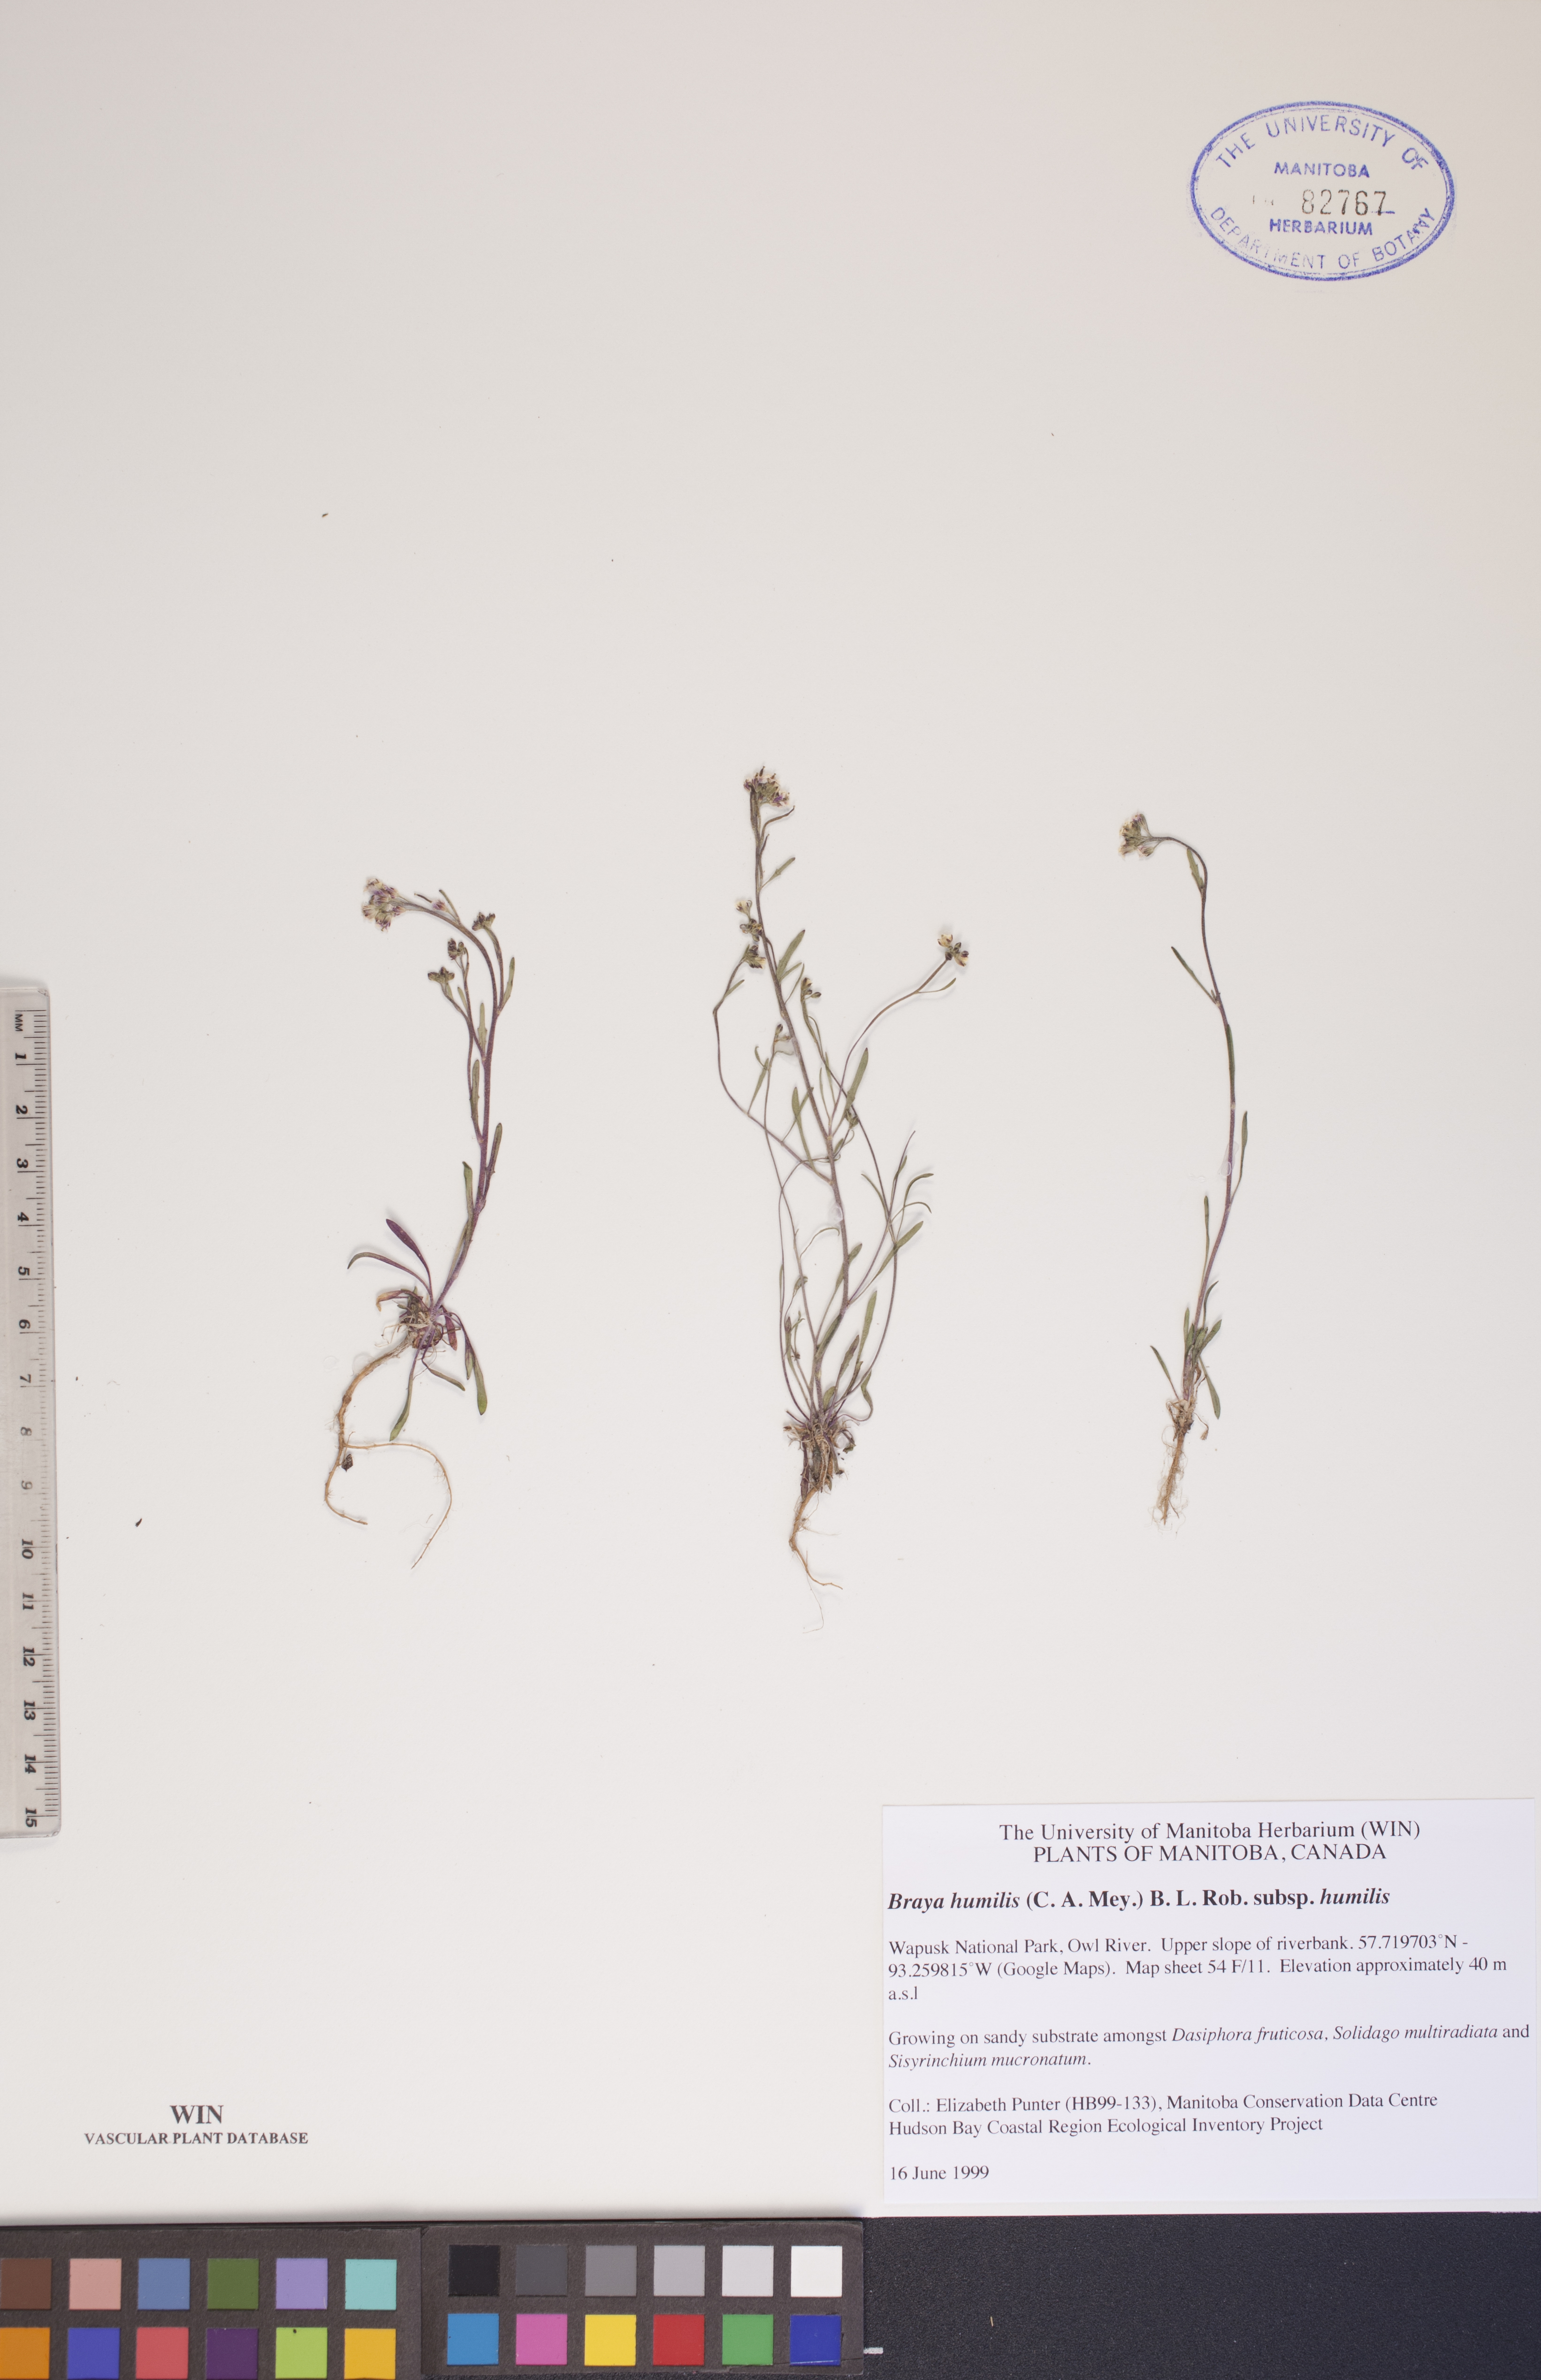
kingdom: Plantae
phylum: Tracheophyta
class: Magnoliopsida
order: Brassicales
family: Brassicaceae
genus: Braya
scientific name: Braya humilis
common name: Alpine northern rockcress
